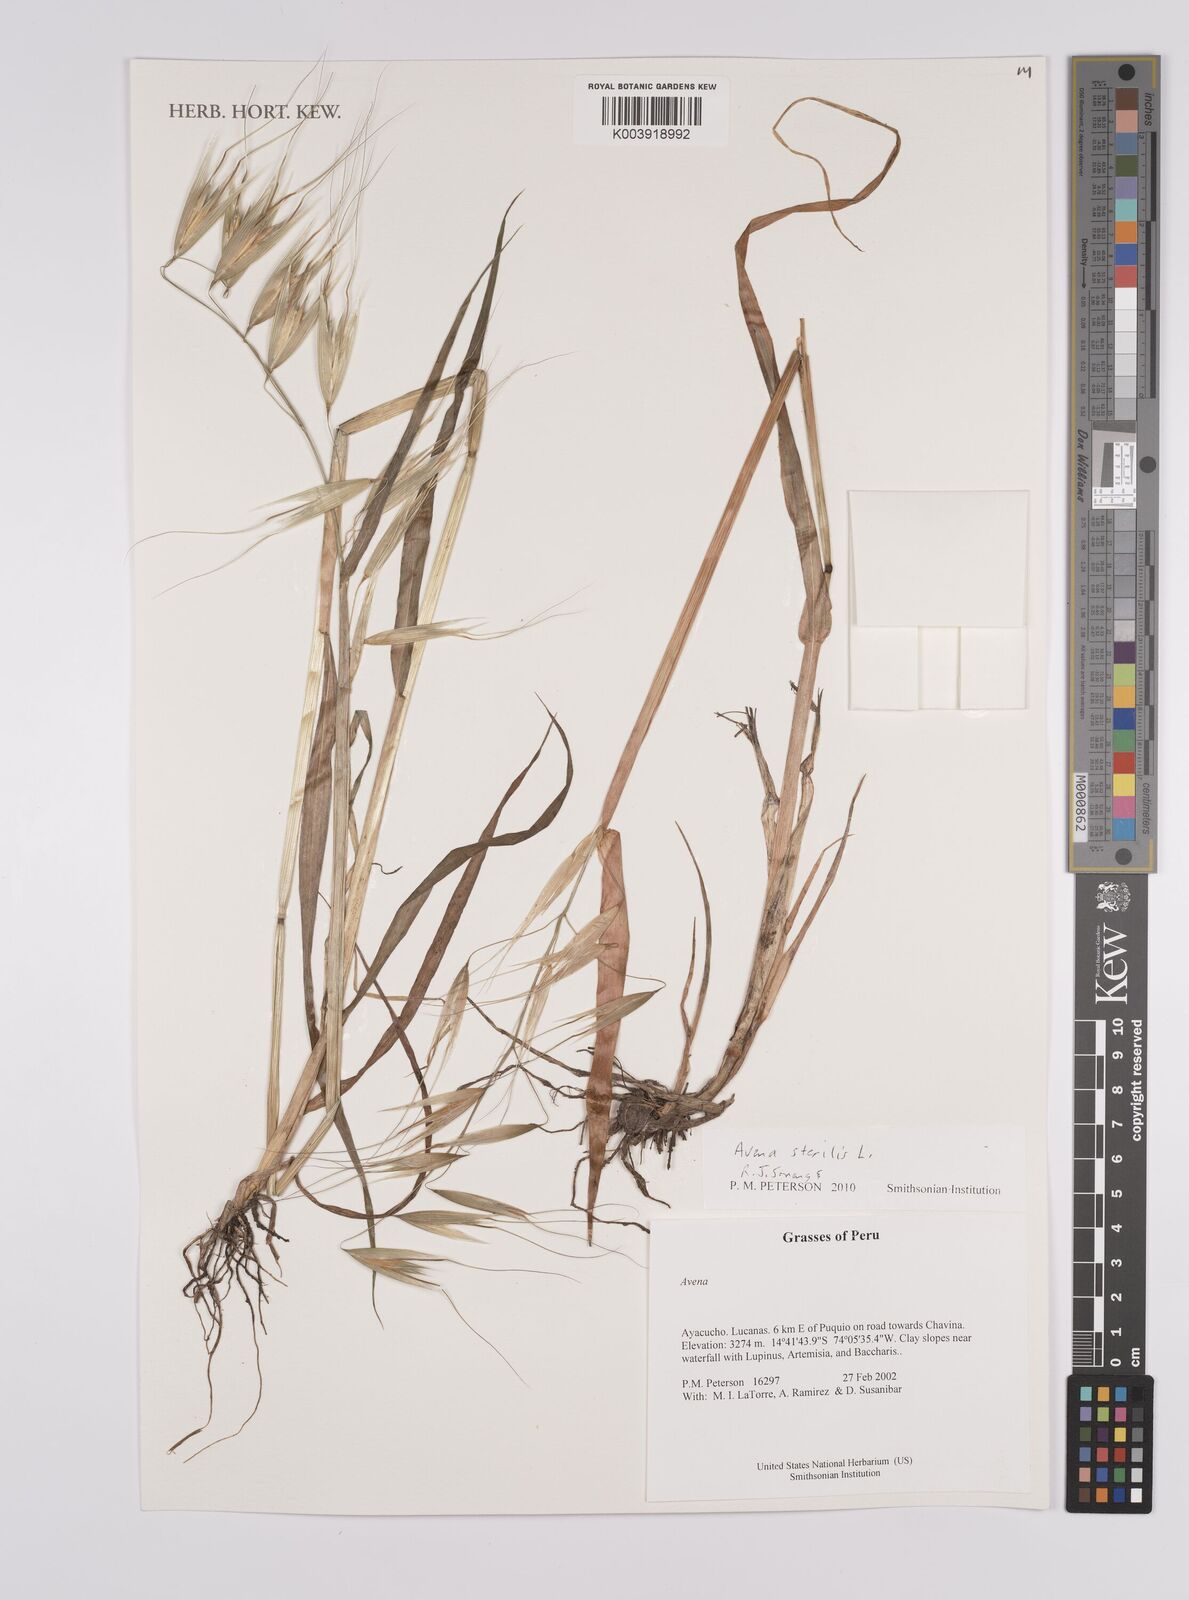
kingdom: Plantae
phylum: Tracheophyta
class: Liliopsida
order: Poales
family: Poaceae
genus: Avena
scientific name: Avena sterilis
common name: Animated oat
